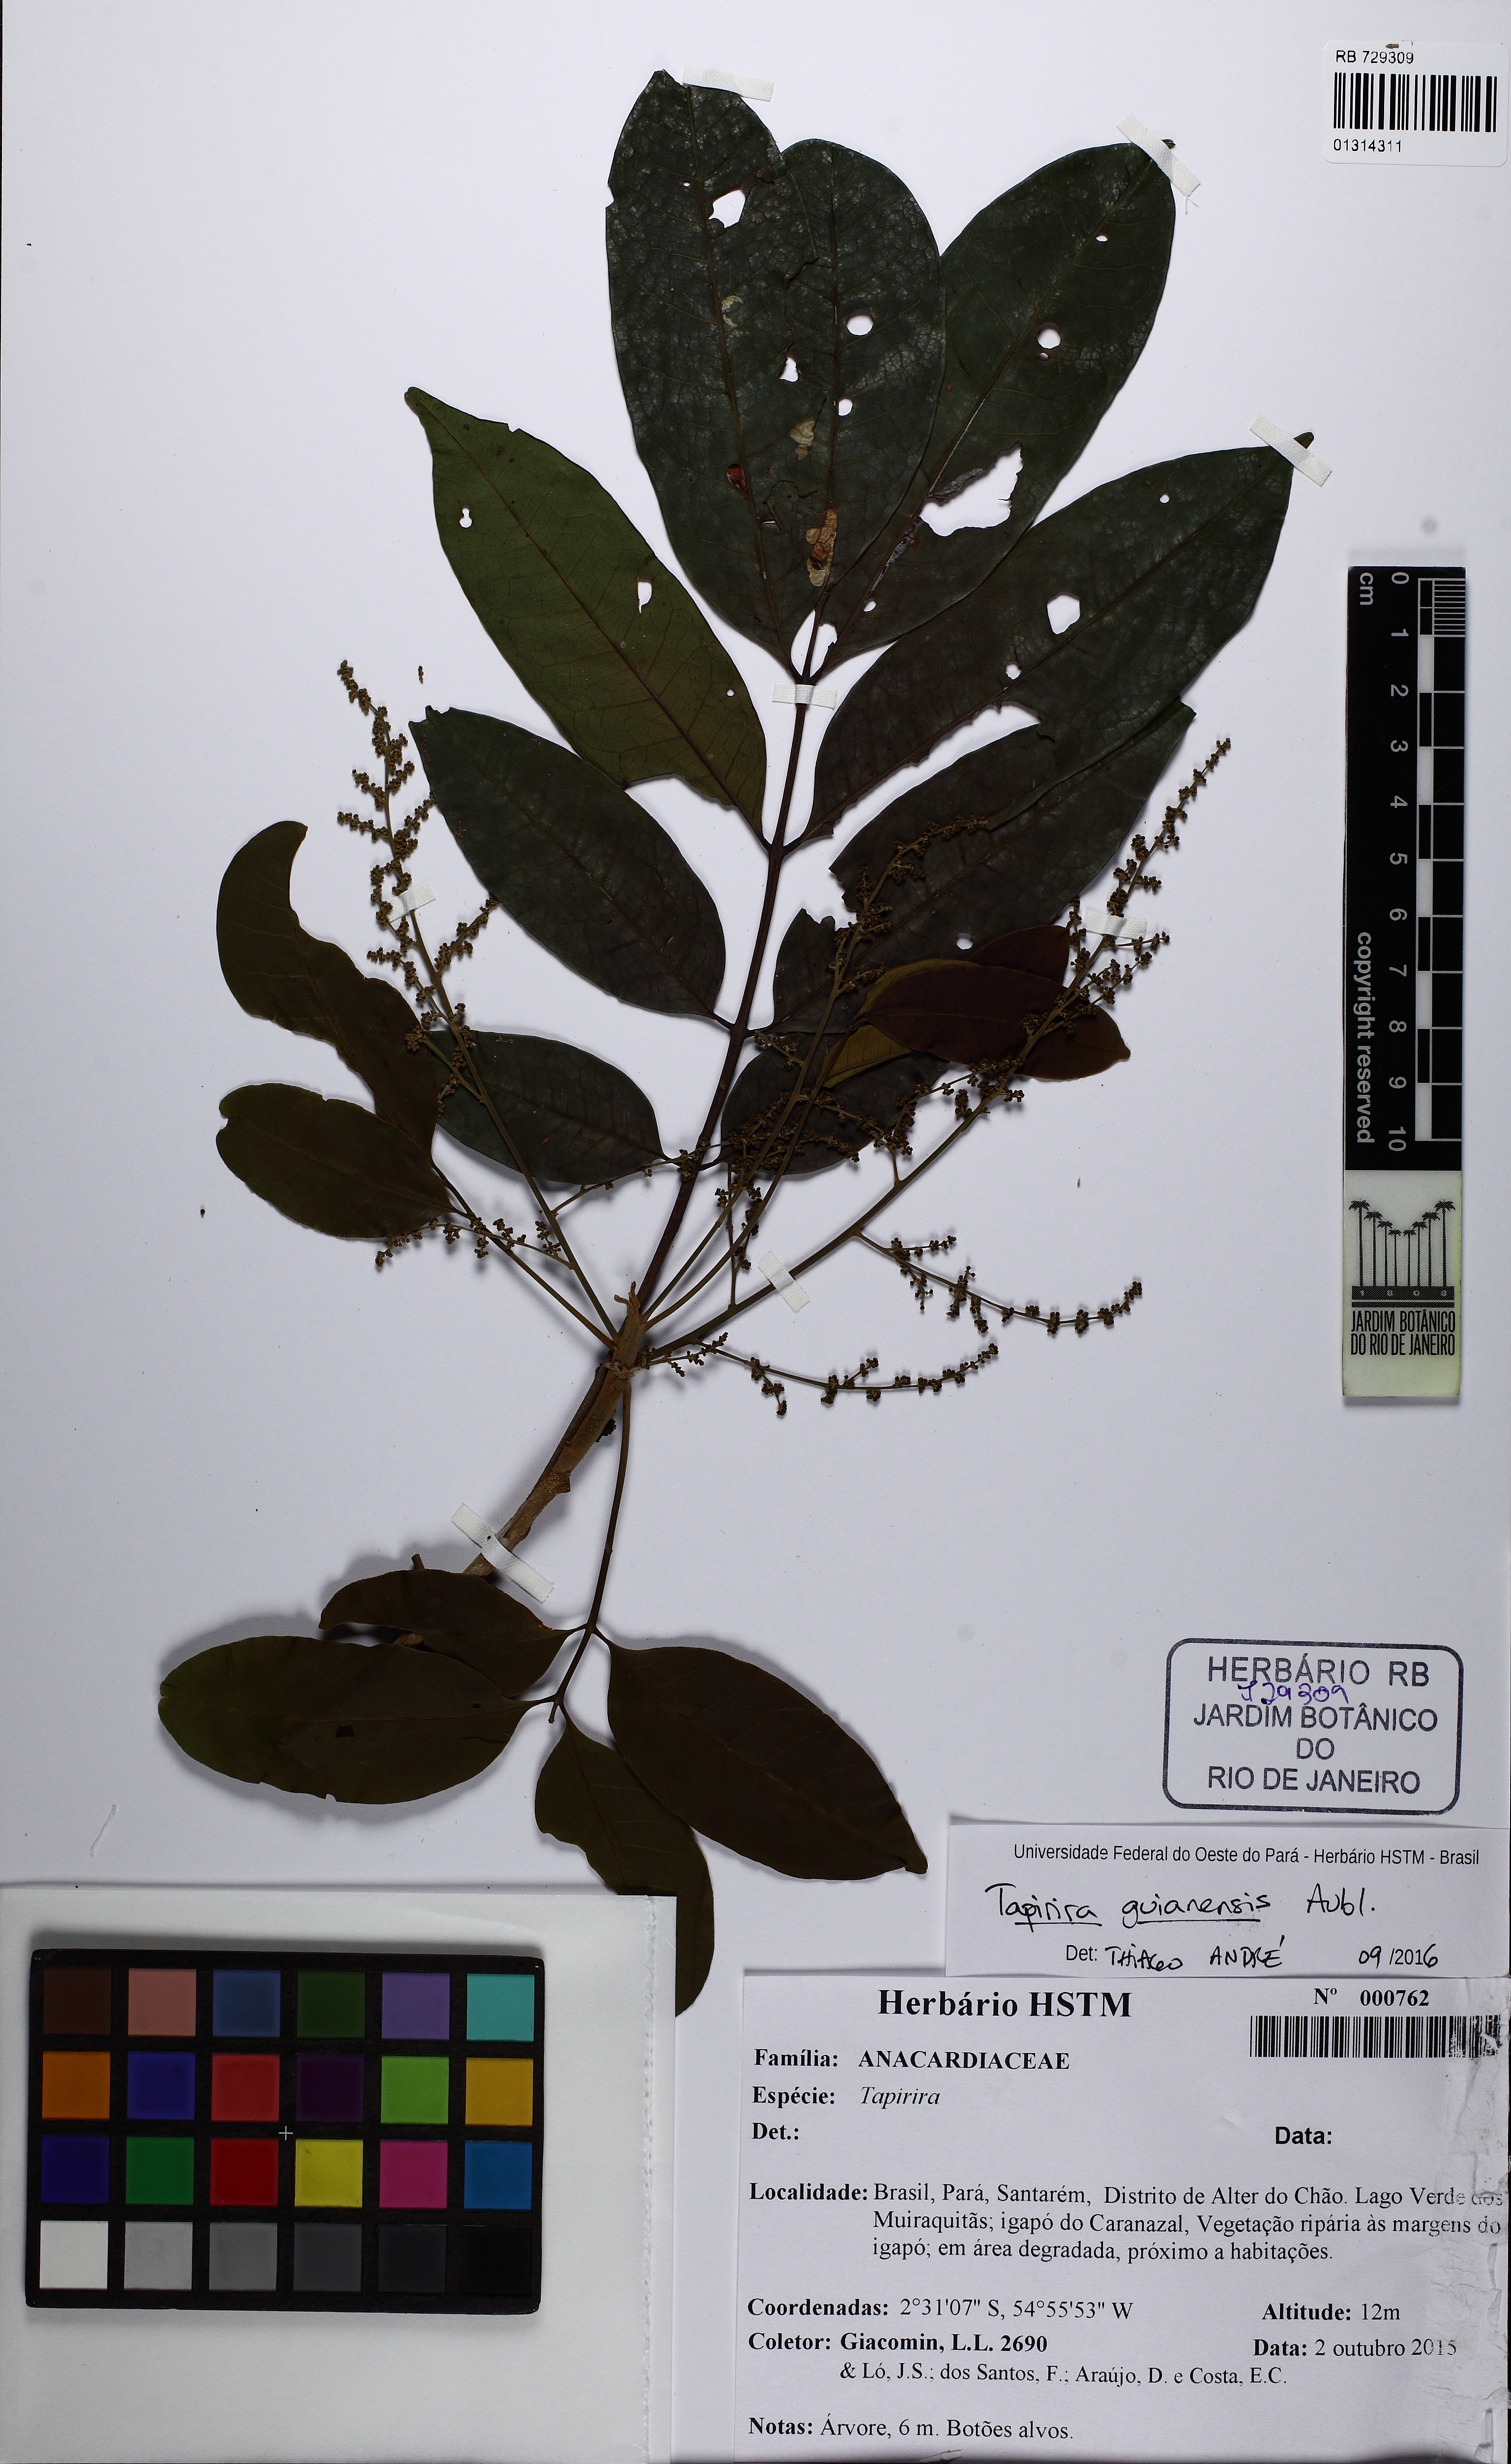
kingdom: Plantae
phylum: Tracheophyta
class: Magnoliopsida
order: Sapindales
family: Anacardiaceae
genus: Tapirira
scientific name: Tapirira guianensis
